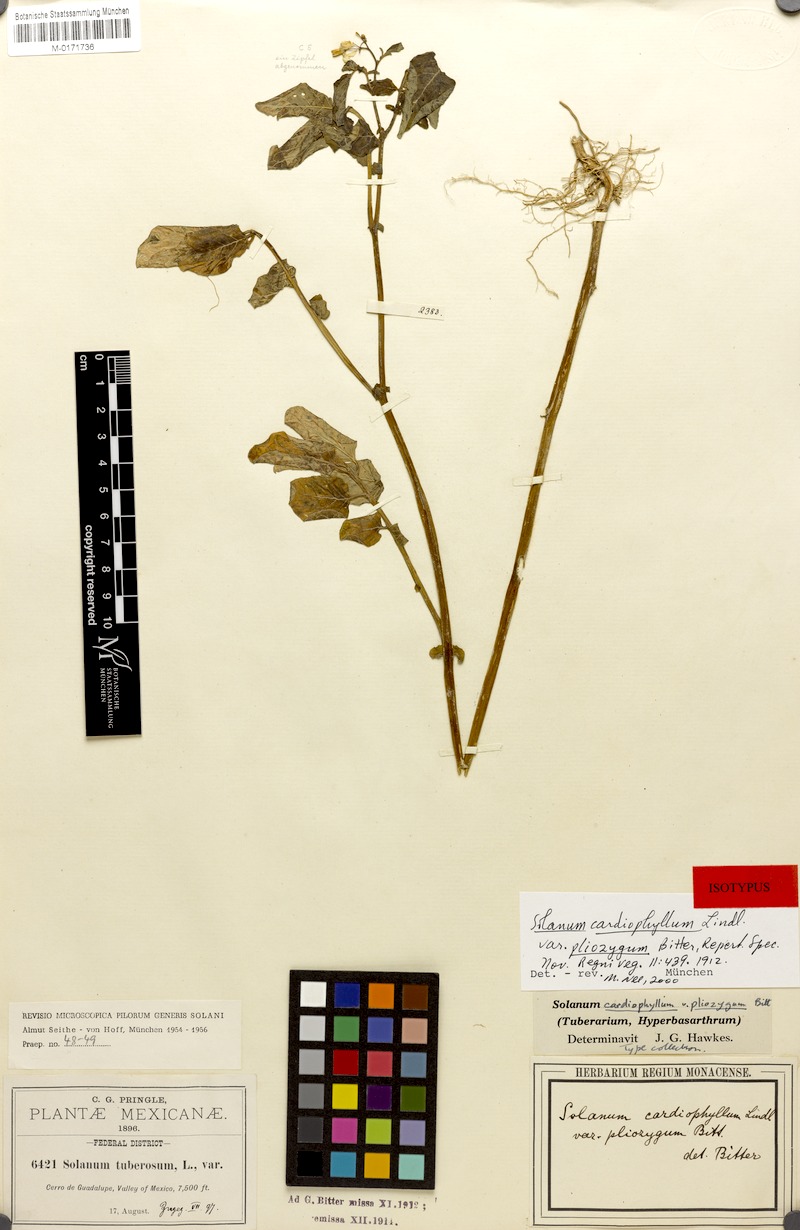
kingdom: Plantae
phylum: Tracheophyta
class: Magnoliopsida
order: Solanales
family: Solanaceae
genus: Solanum
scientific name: Solanum cardiophyllum
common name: Heartleaf horsenettle
